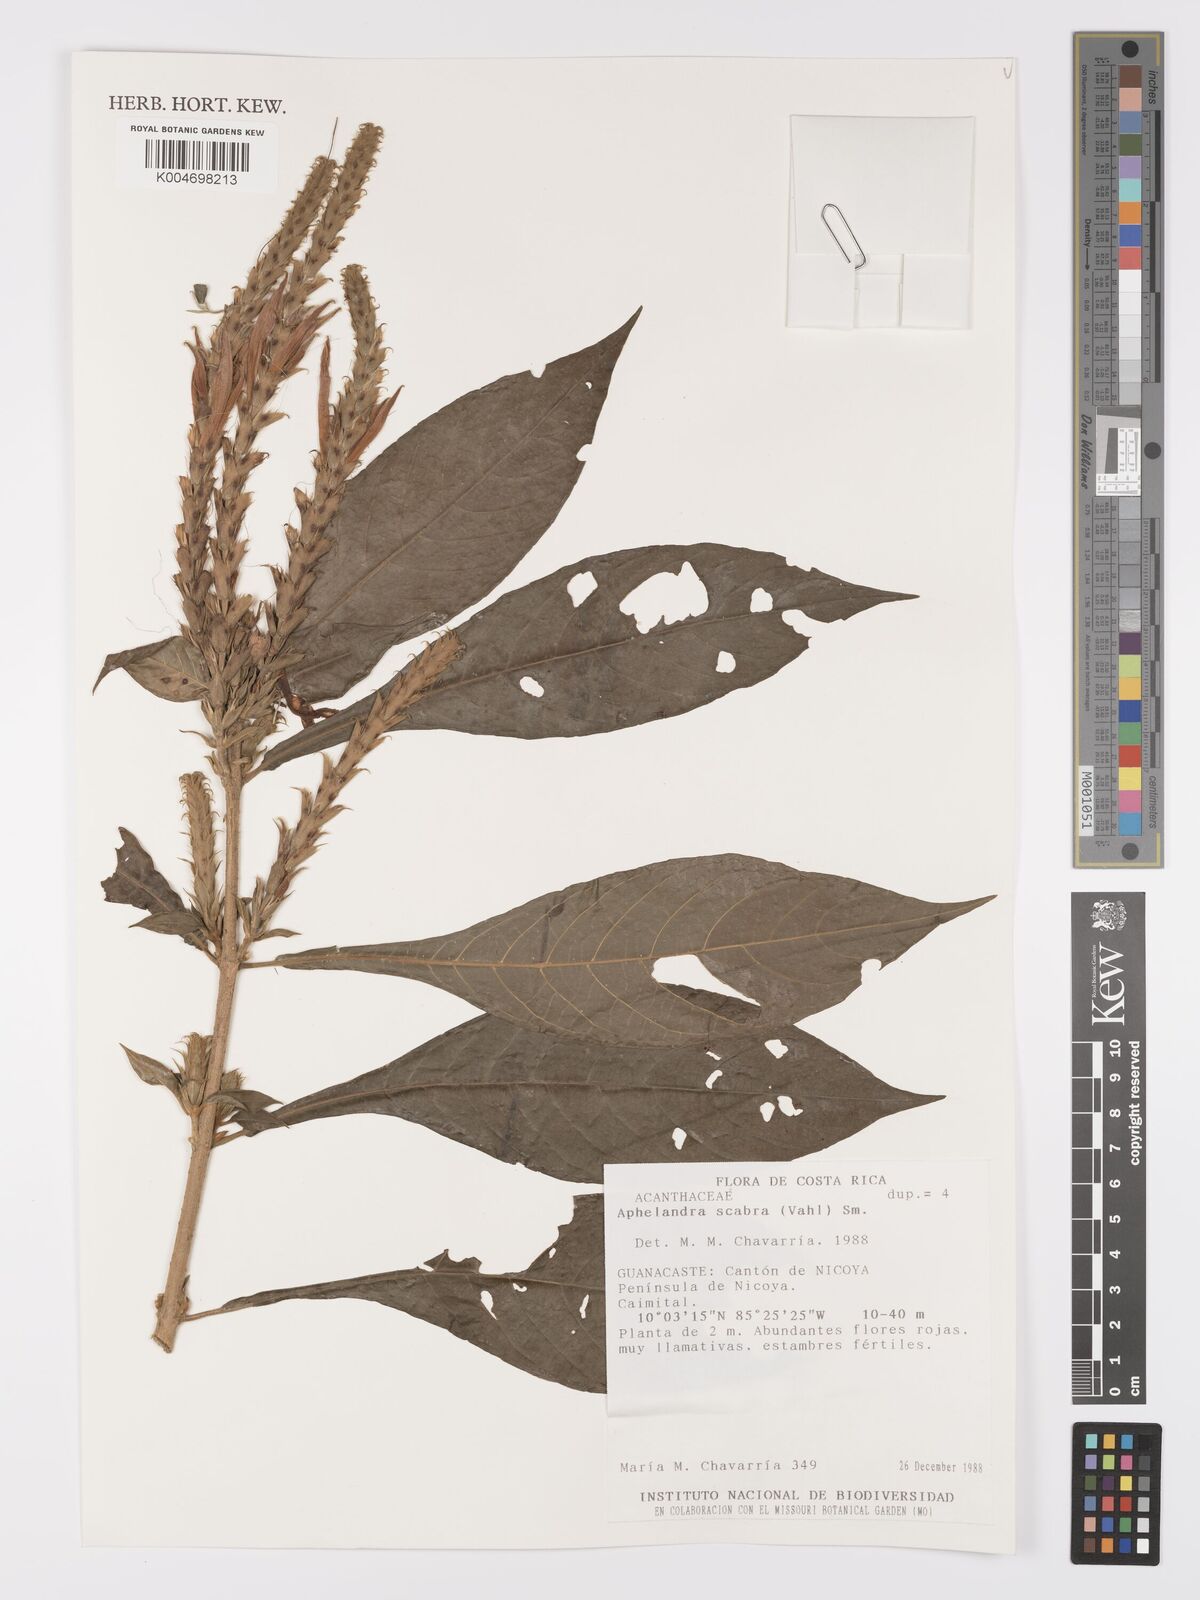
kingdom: Plantae
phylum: Tracheophyta
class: Magnoliopsida
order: Lamiales
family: Acanthaceae
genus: Aphelandra
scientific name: Aphelandra scabra
